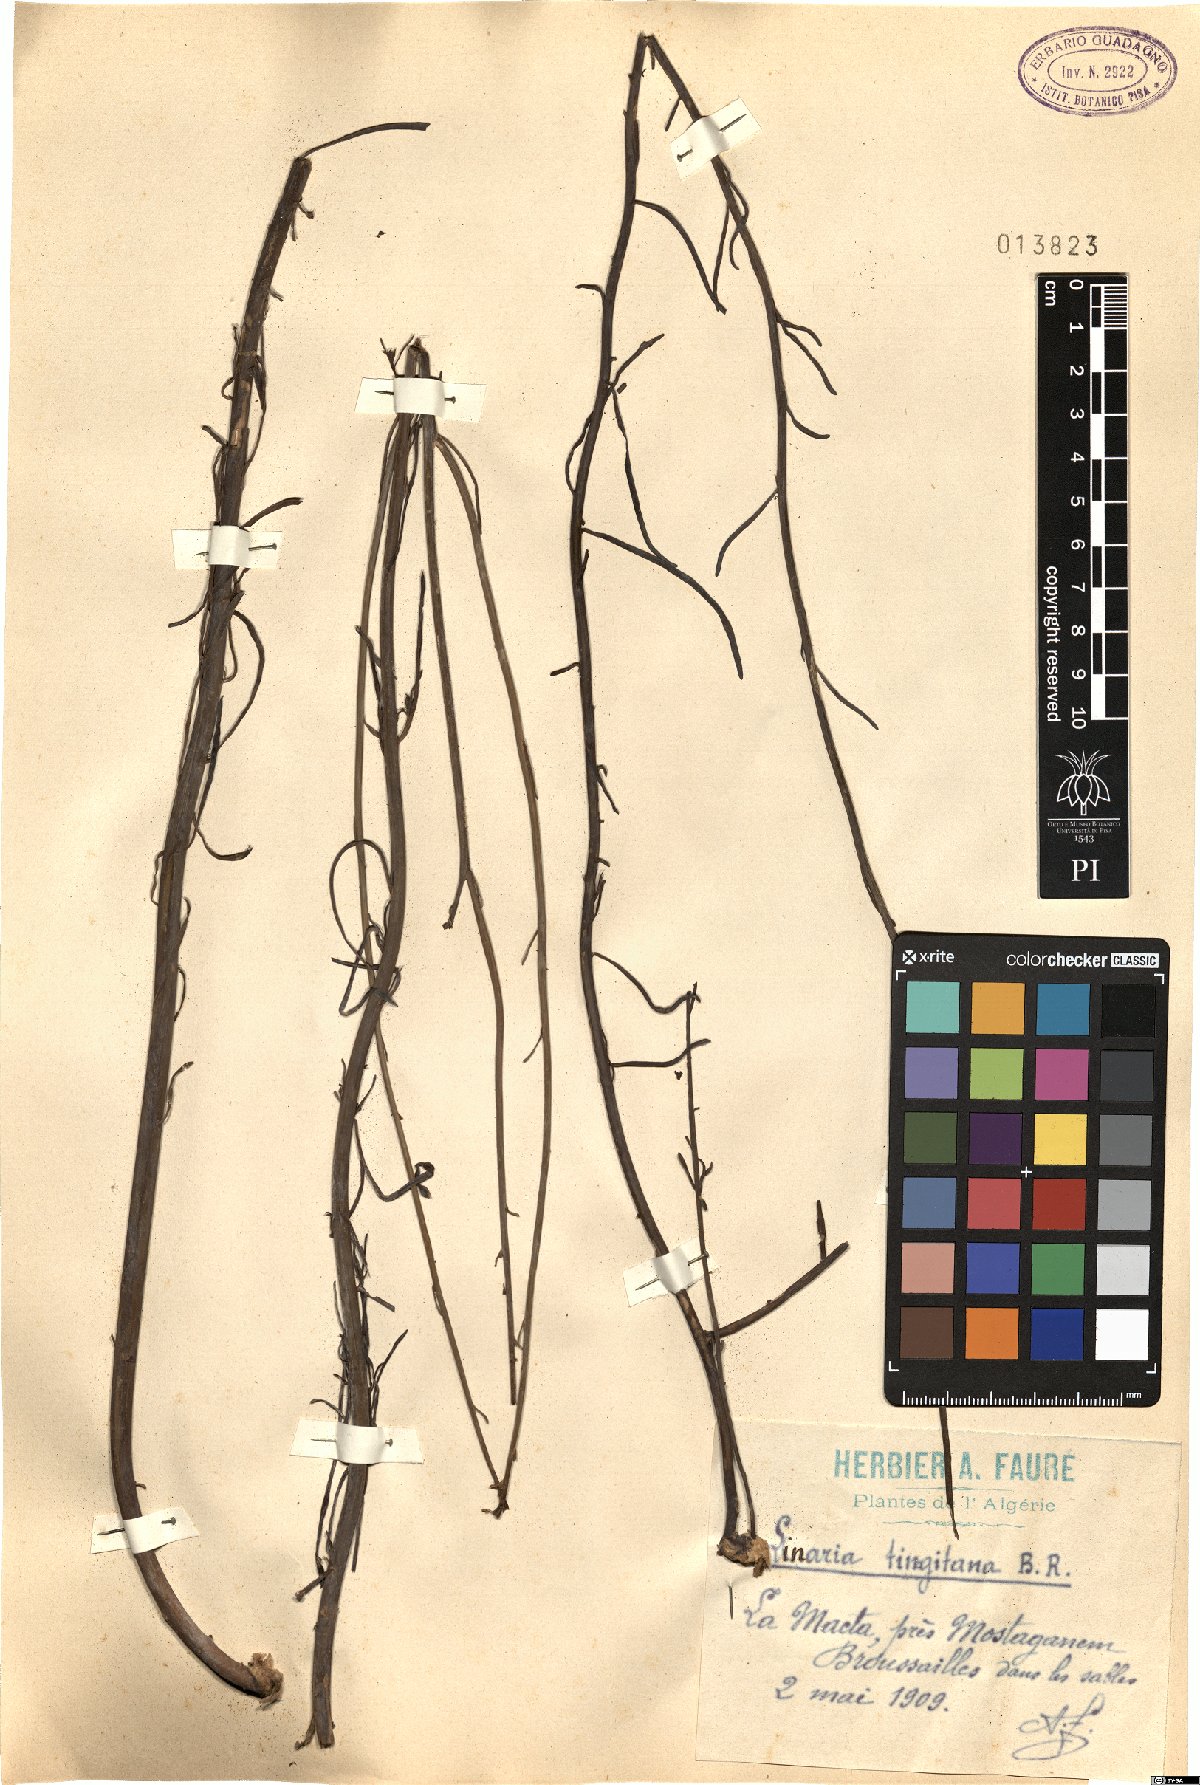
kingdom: Plantae
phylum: Tracheophyta
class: Magnoliopsida
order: Lamiales
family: Plantaginaceae
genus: Linaria
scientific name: Linaria tingitana
